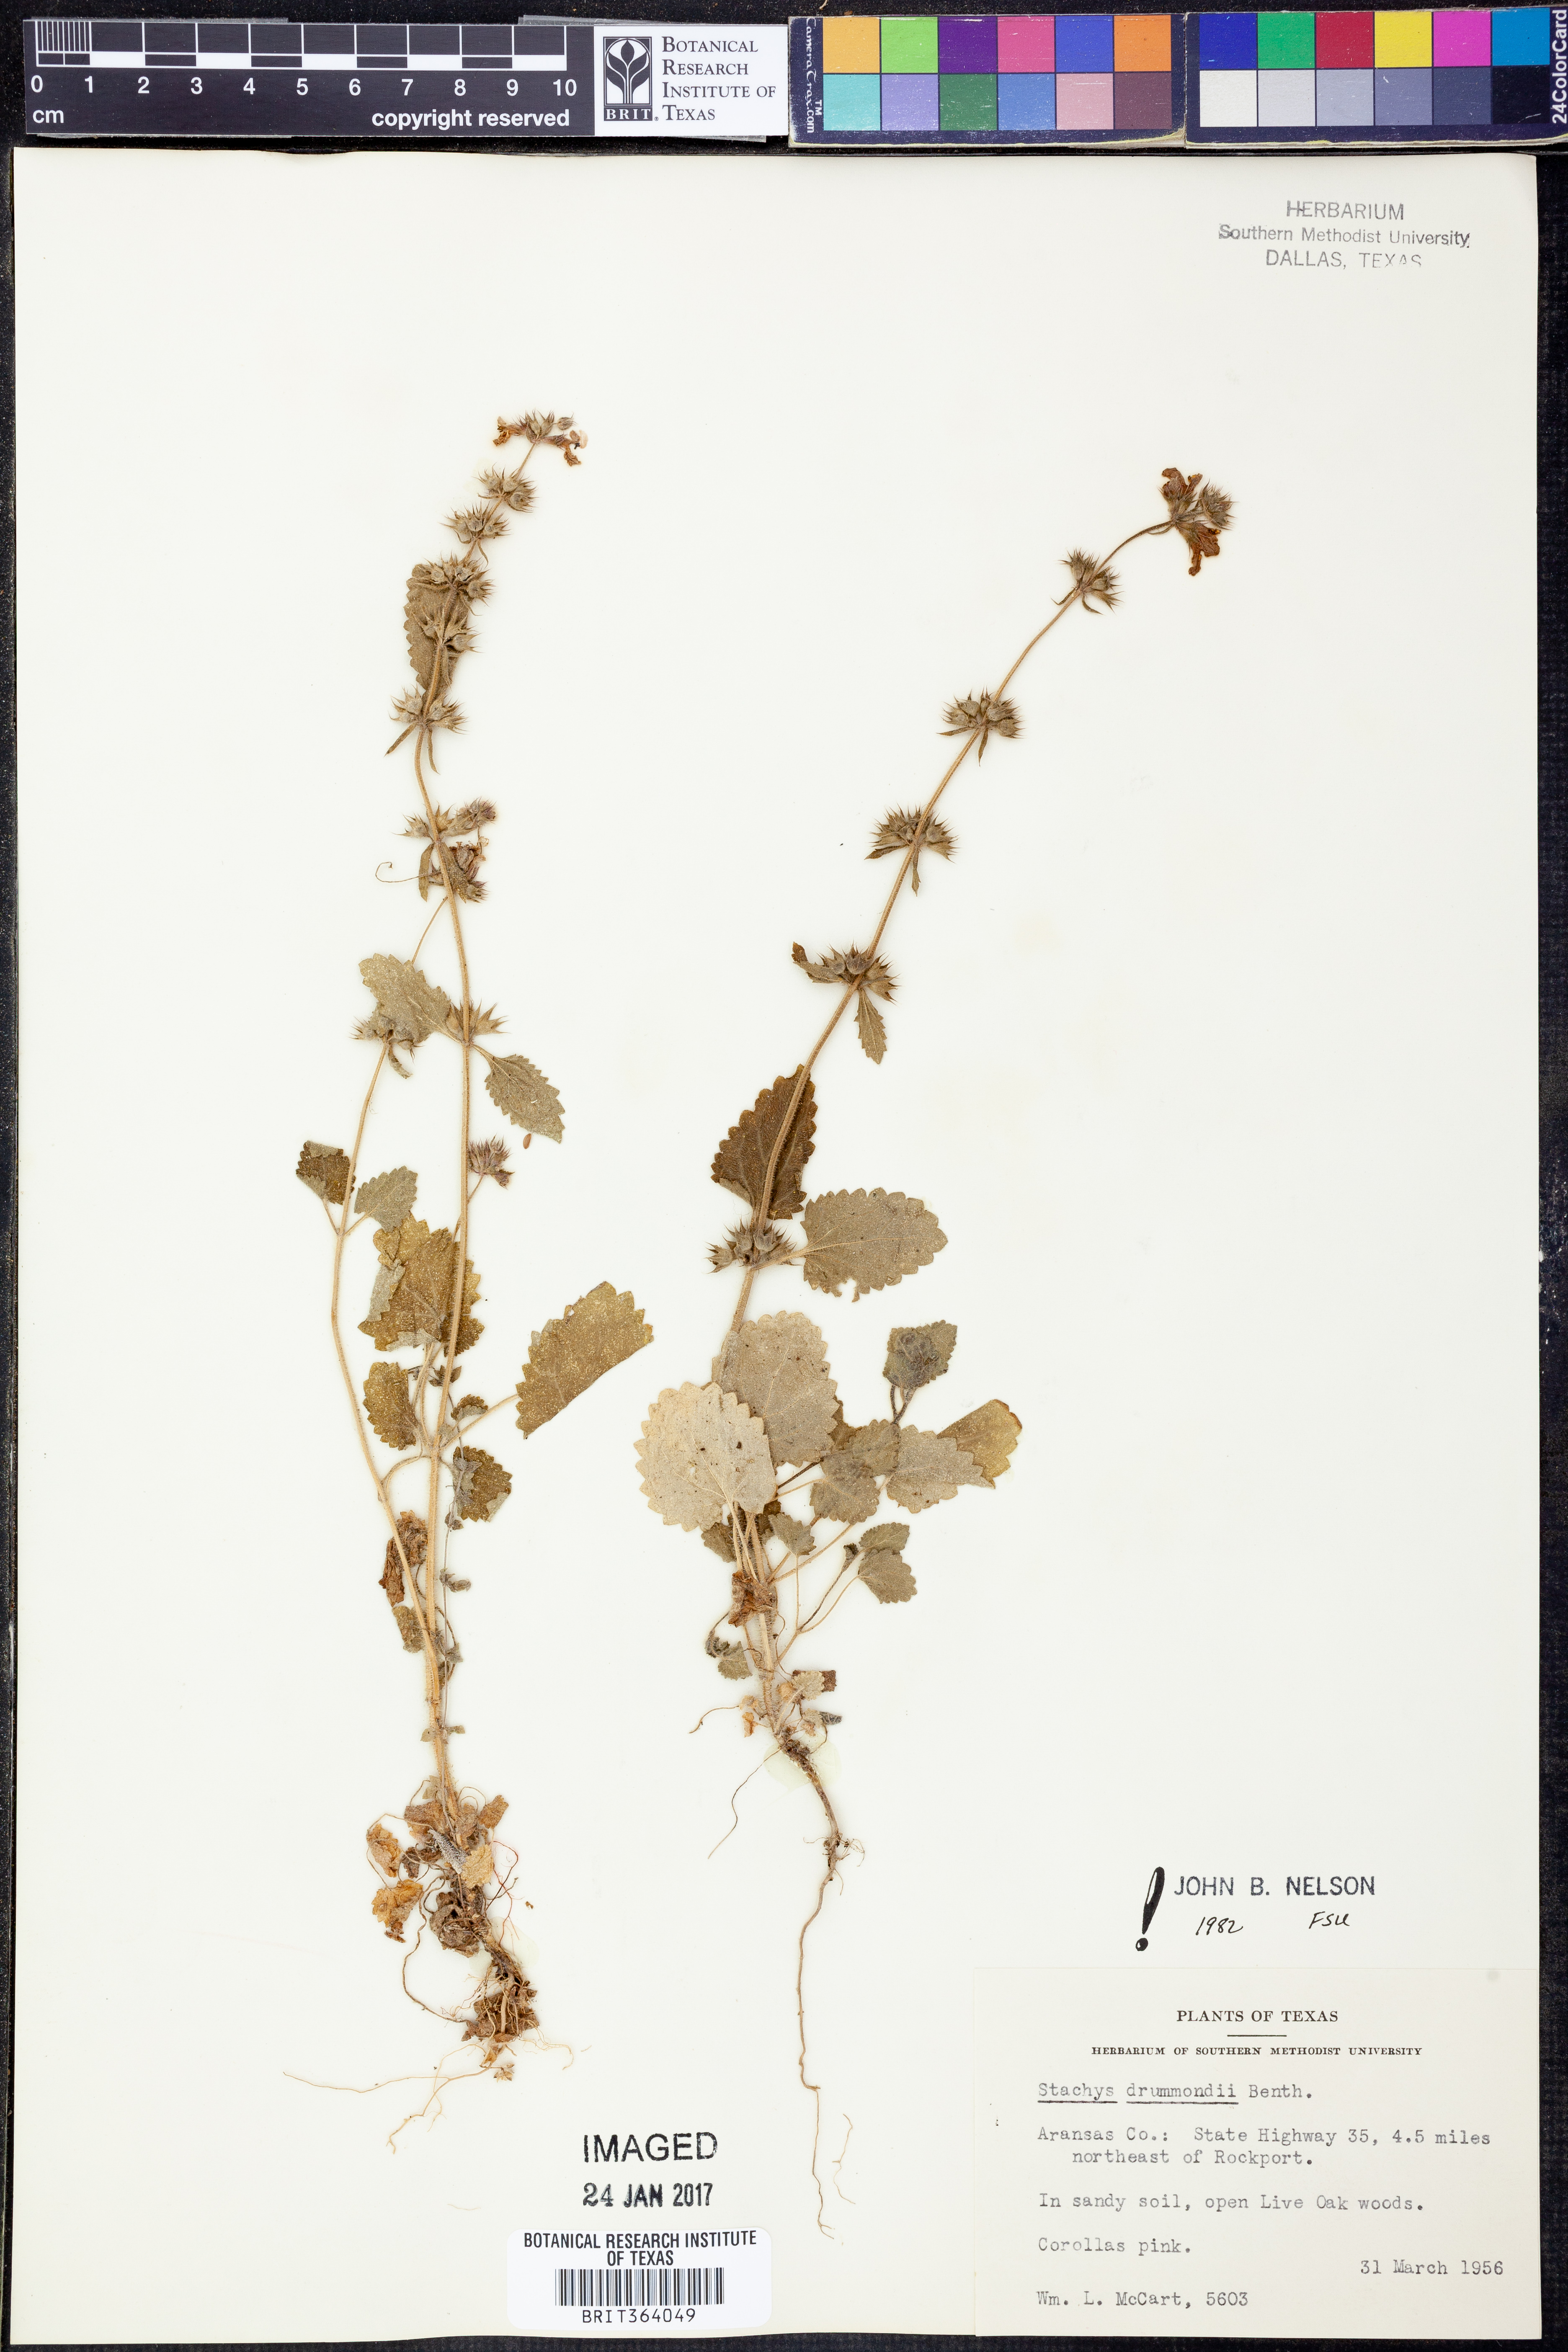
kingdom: Plantae
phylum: Tracheophyta
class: Magnoliopsida
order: Lamiales
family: Lamiaceae
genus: Stachys
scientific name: Stachys drummondii
